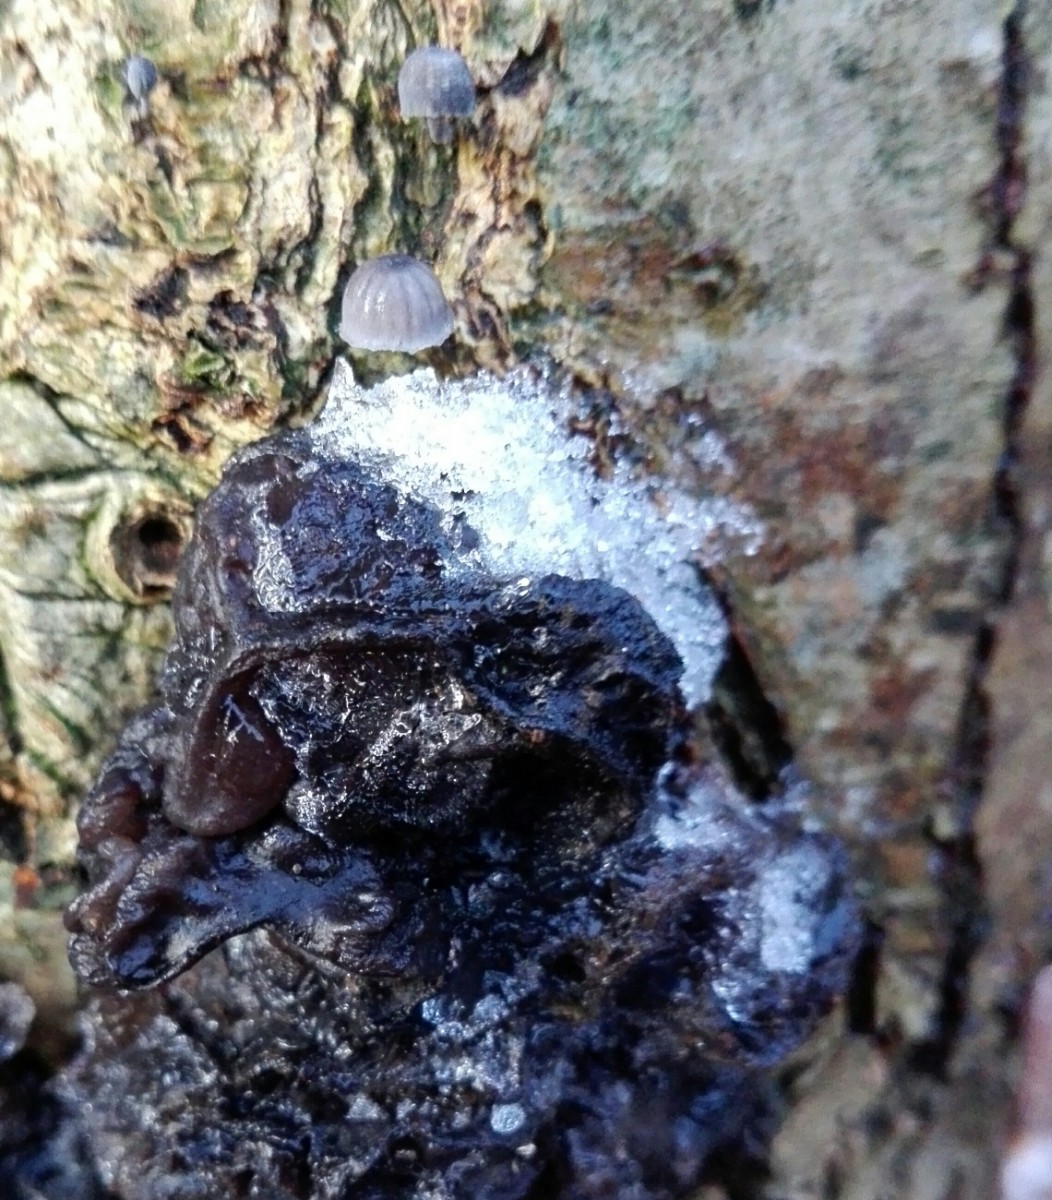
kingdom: Fungi
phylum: Basidiomycota
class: Agaricomycetes
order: Agaricales
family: Mycenaceae
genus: Mycena
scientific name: Mycena pseudocorticola
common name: gråblå bark-huesvamp
